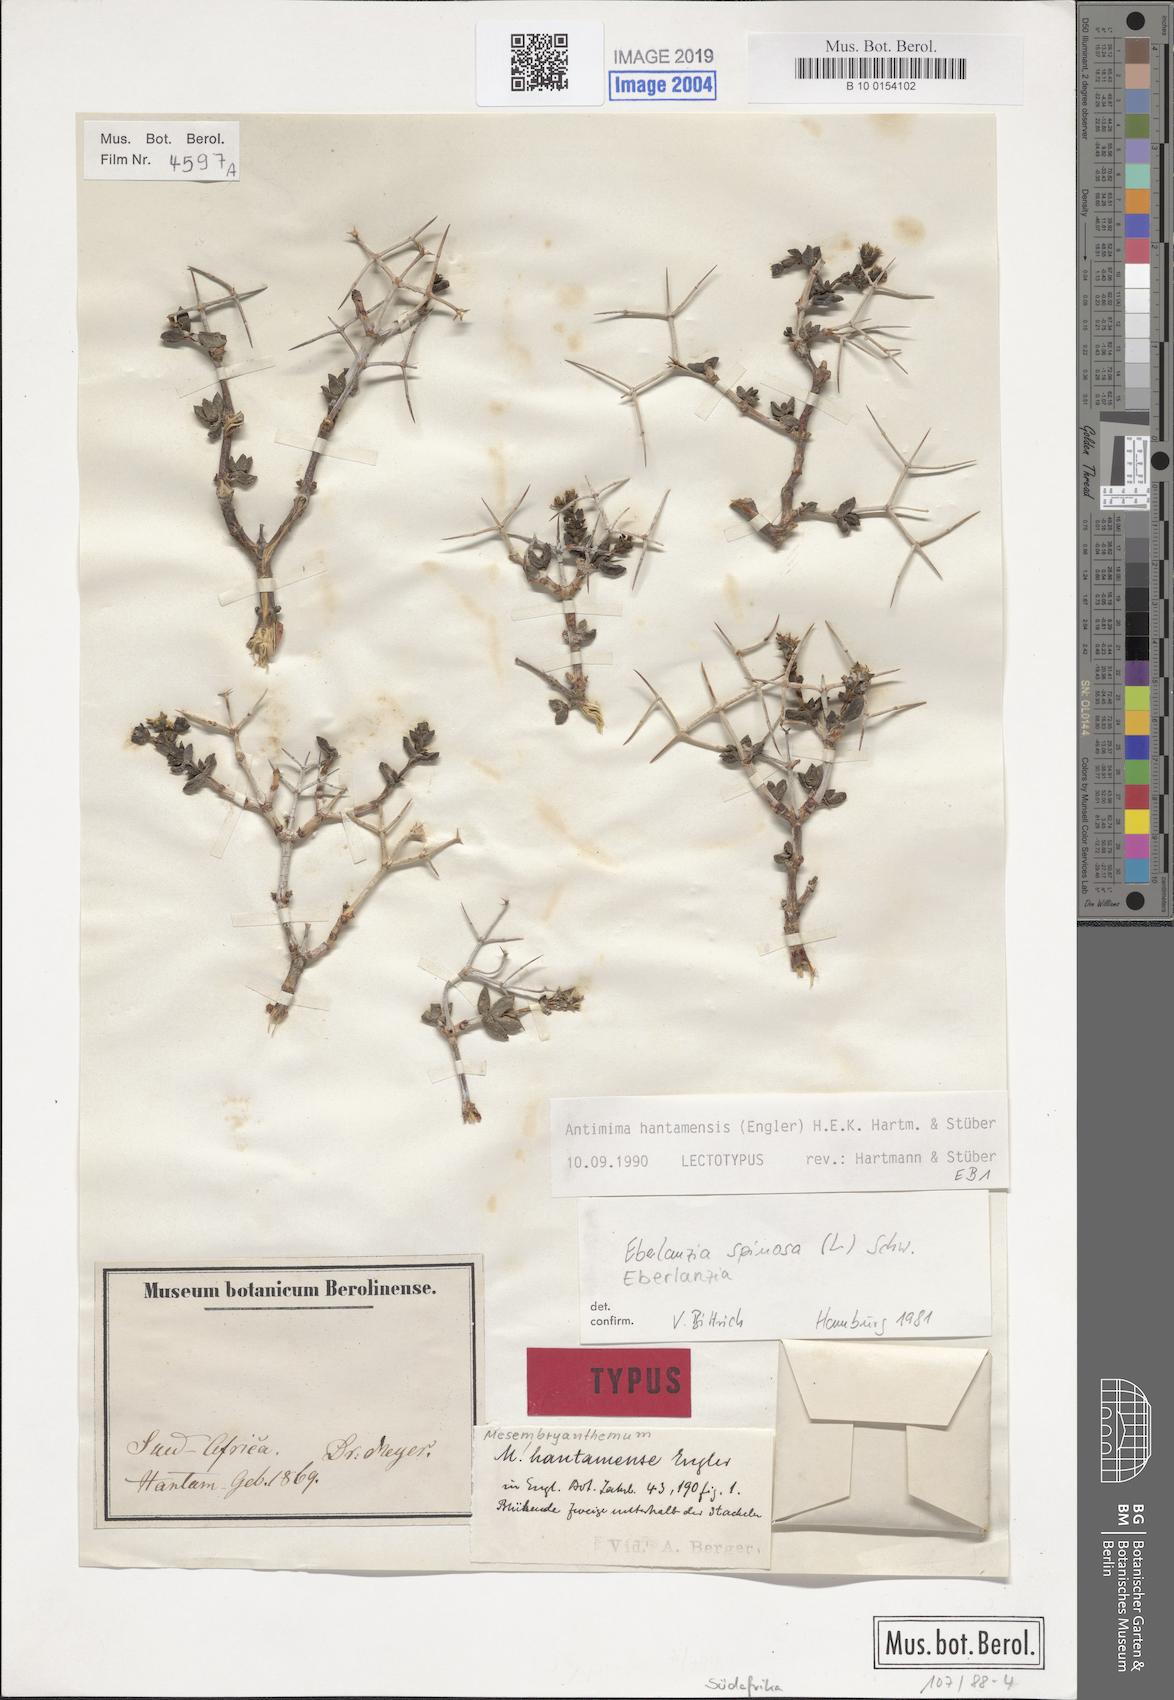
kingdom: Plantae
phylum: Tracheophyta
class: Magnoliopsida
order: Caryophyllales
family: Aizoaceae
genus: Antimima
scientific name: Antimima hantamensis
